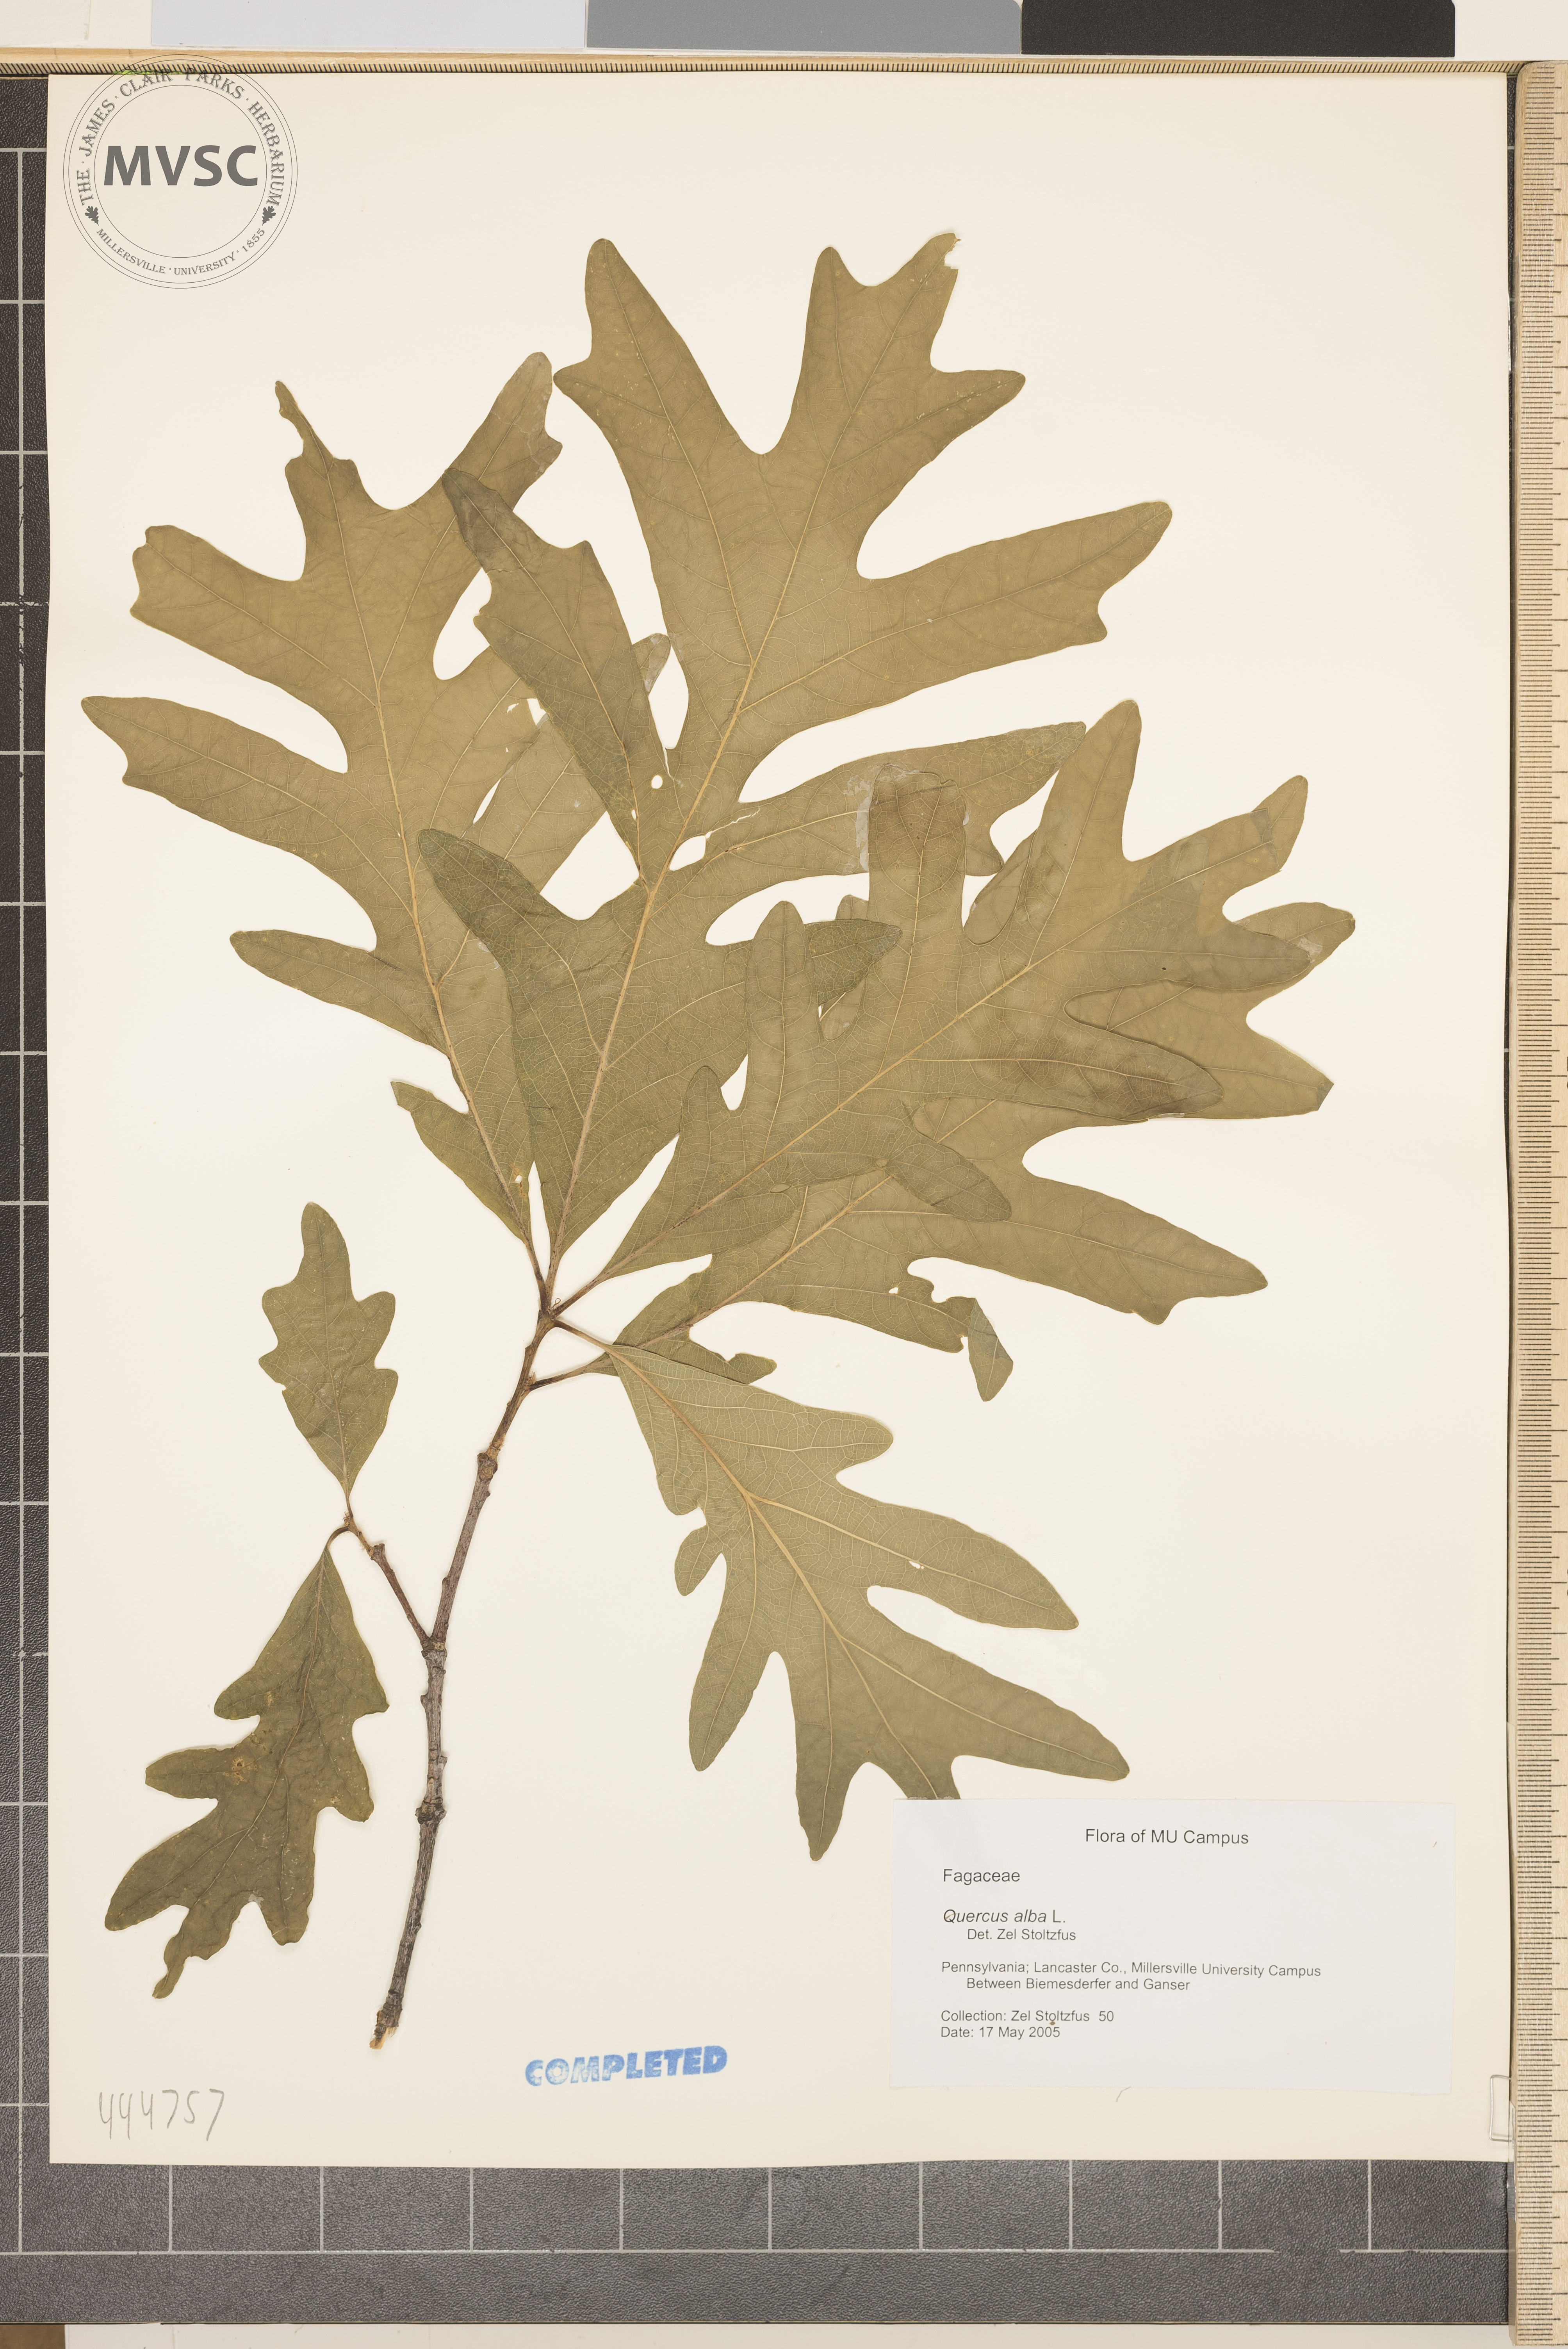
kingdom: Plantae
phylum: Tracheophyta
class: Magnoliopsida
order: Fagales
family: Fagaceae
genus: Quercus
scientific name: Quercus alba
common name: White oak
